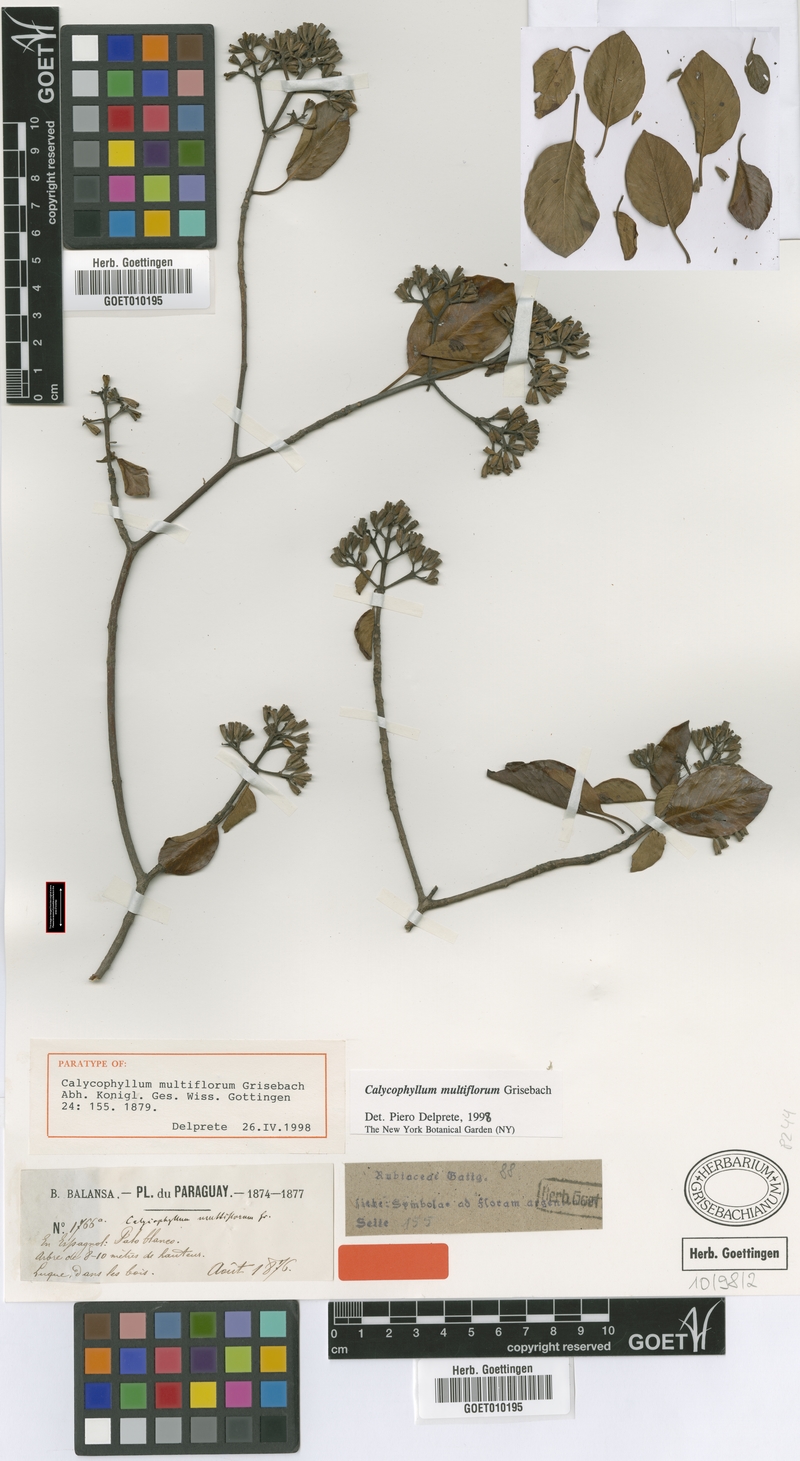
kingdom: Plantae
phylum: Tracheophyta
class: Magnoliopsida
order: Gentianales
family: Rubiaceae
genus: Calycophyllum
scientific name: Calycophyllum multiflorum
